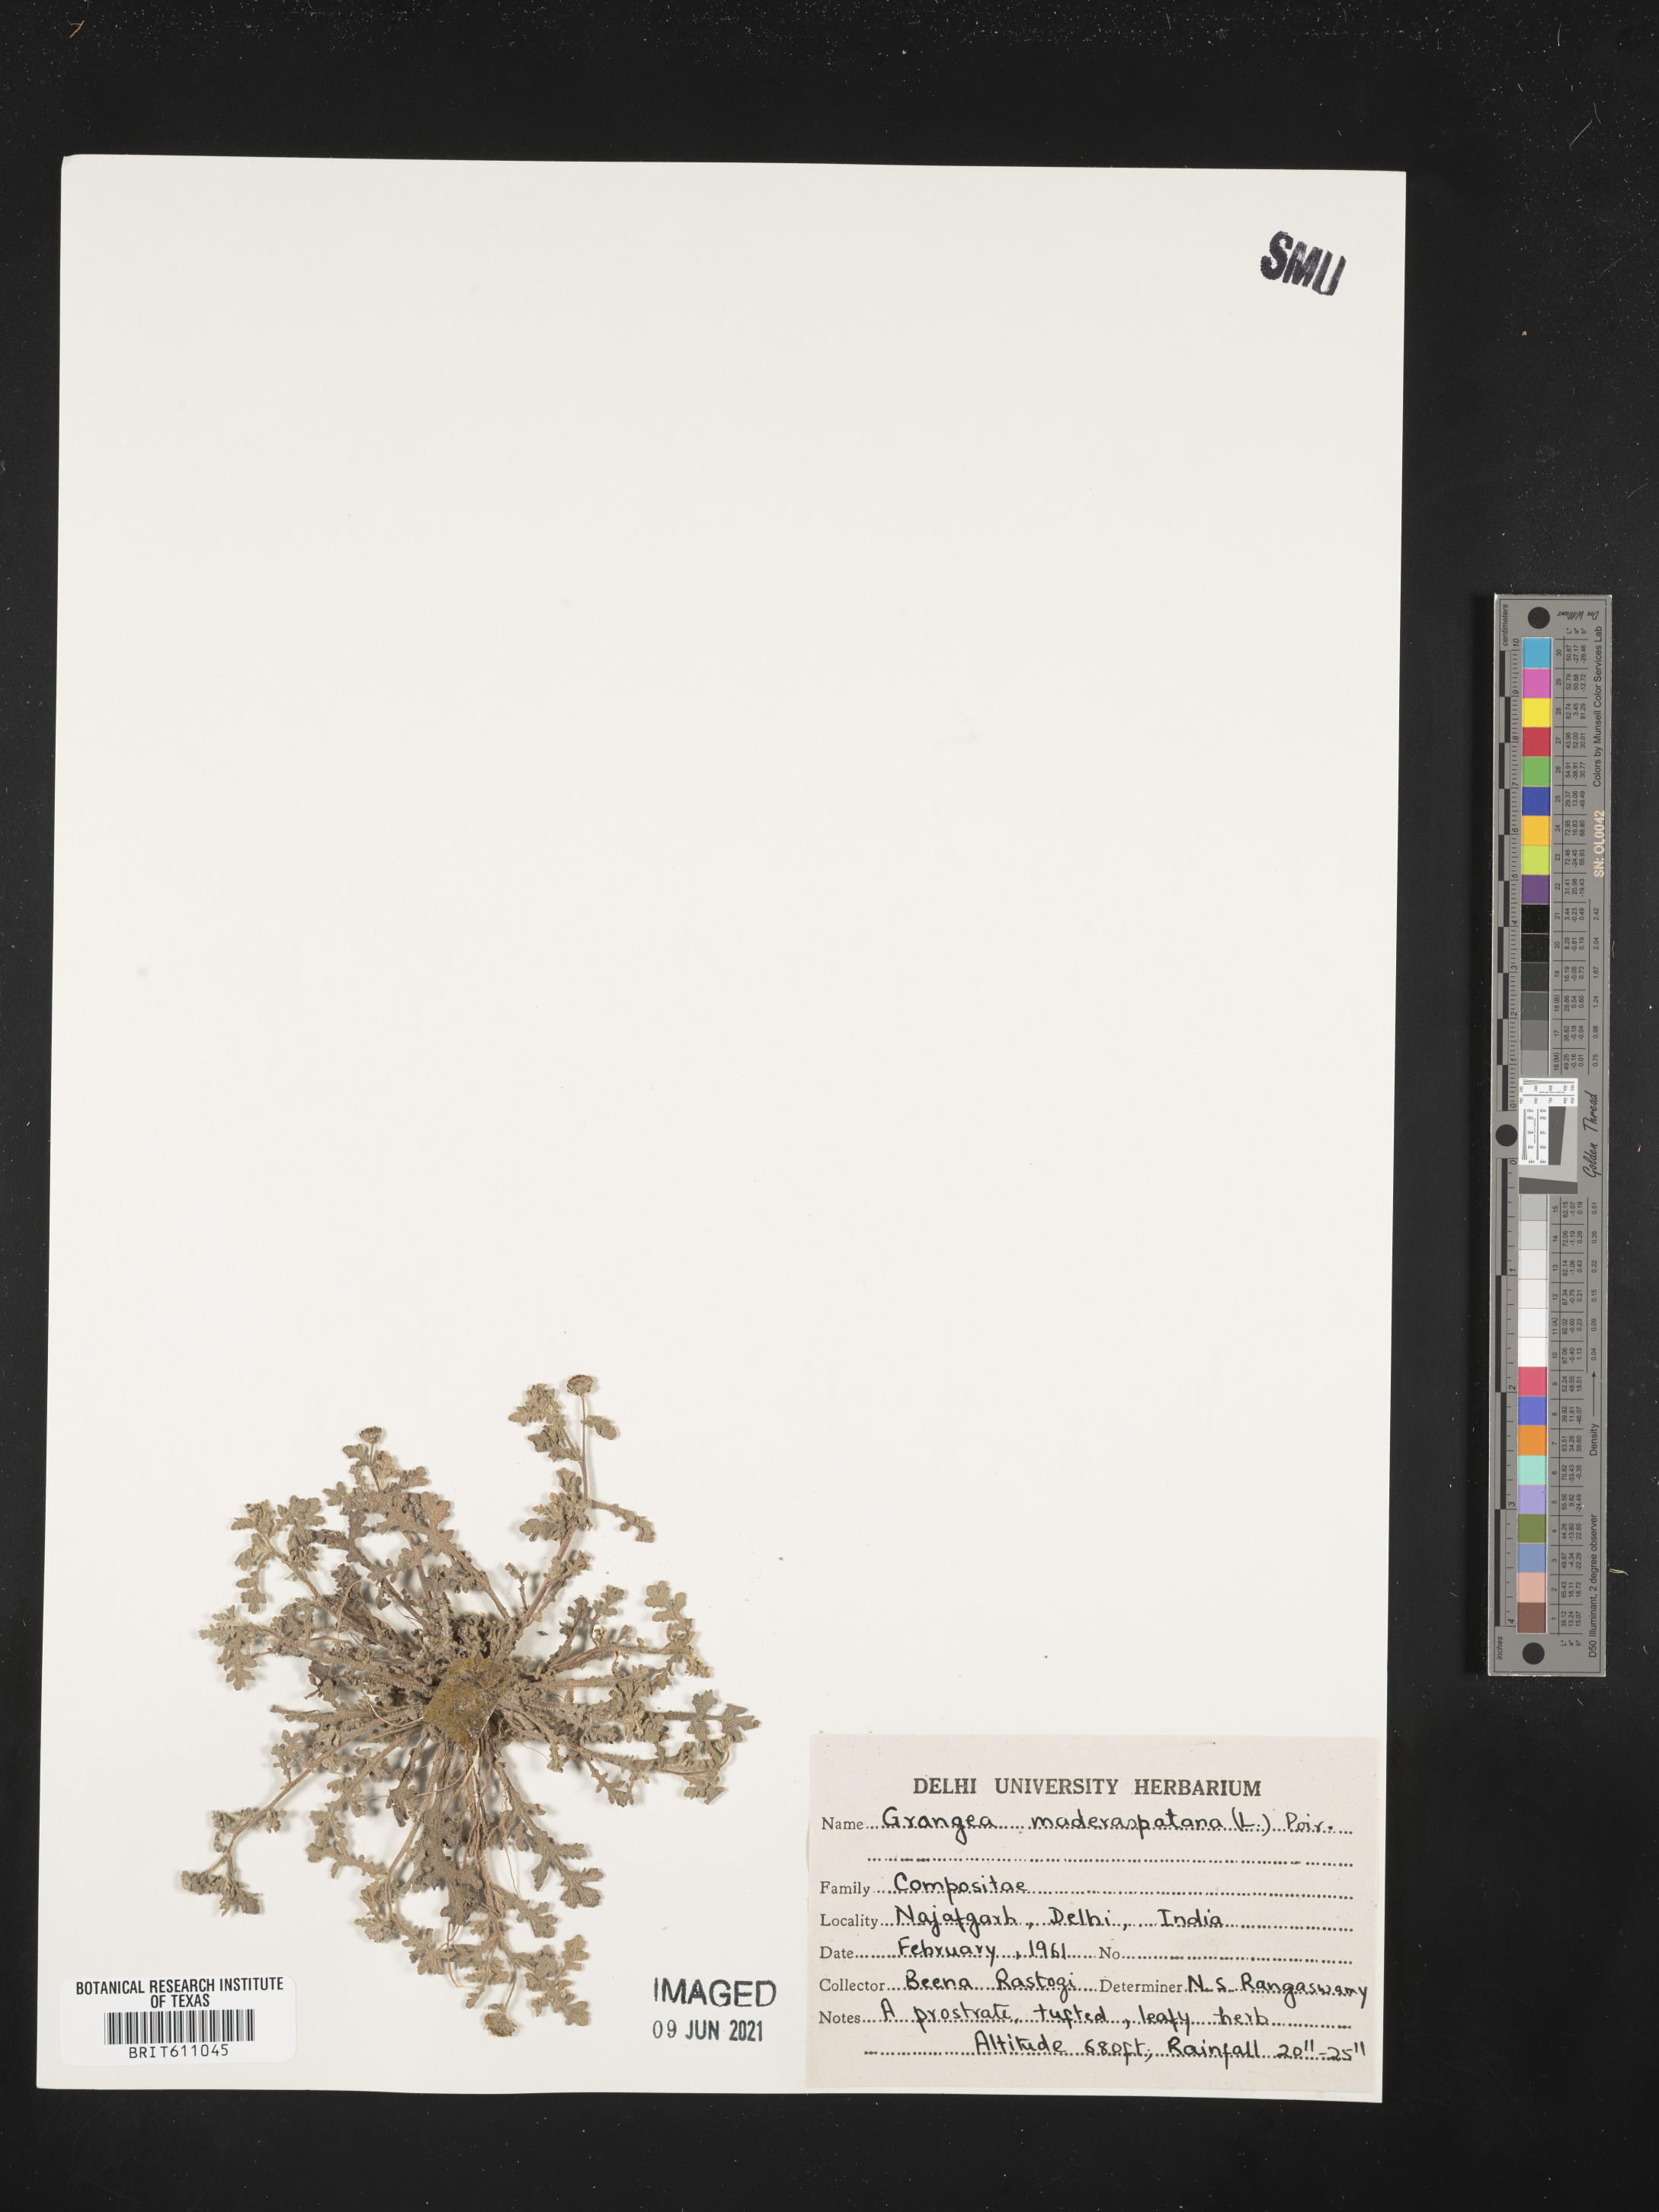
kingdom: Plantae
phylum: Tracheophyta
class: Magnoliopsida
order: Asterales
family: Asteraceae
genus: Grangea
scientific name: Grangea maderaspatana
